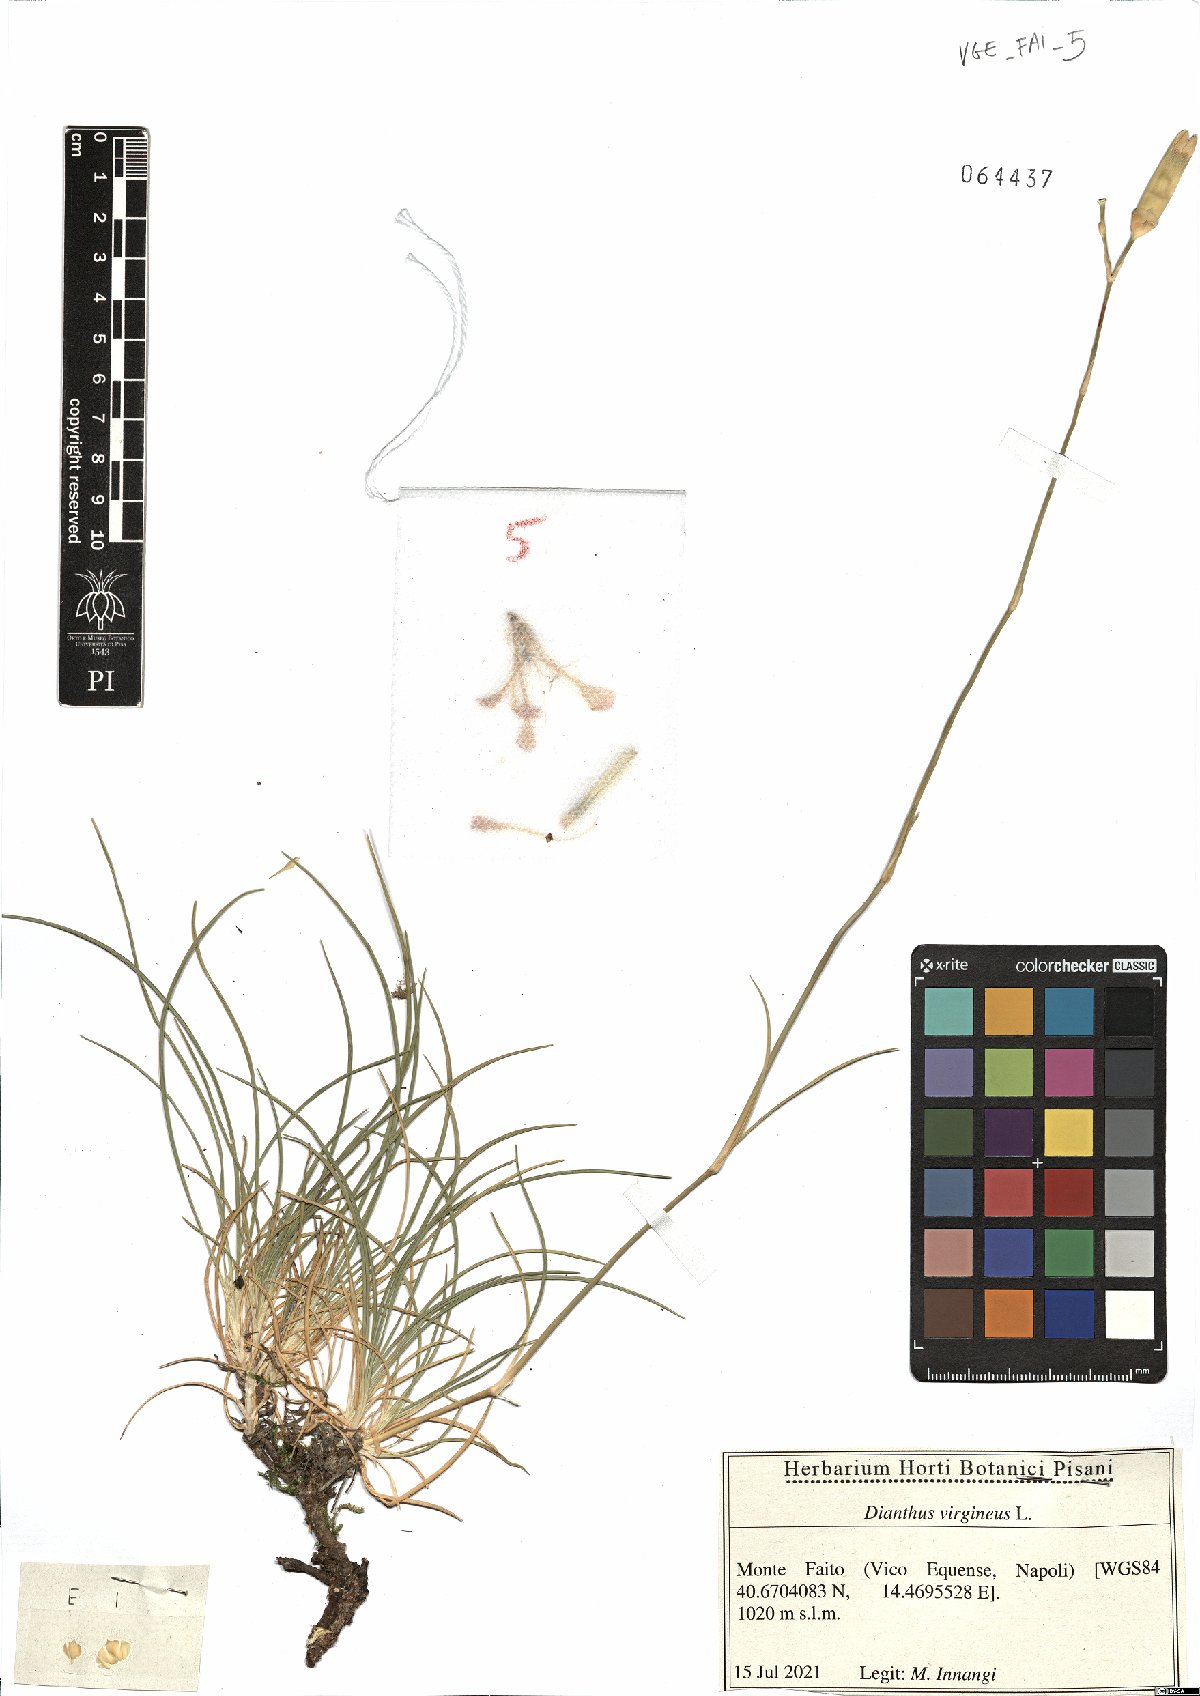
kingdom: Plantae
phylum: Tracheophyta
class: Magnoliopsida
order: Caryophyllales
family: Caryophyllaceae
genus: Dianthus
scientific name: Dianthus virgineus
